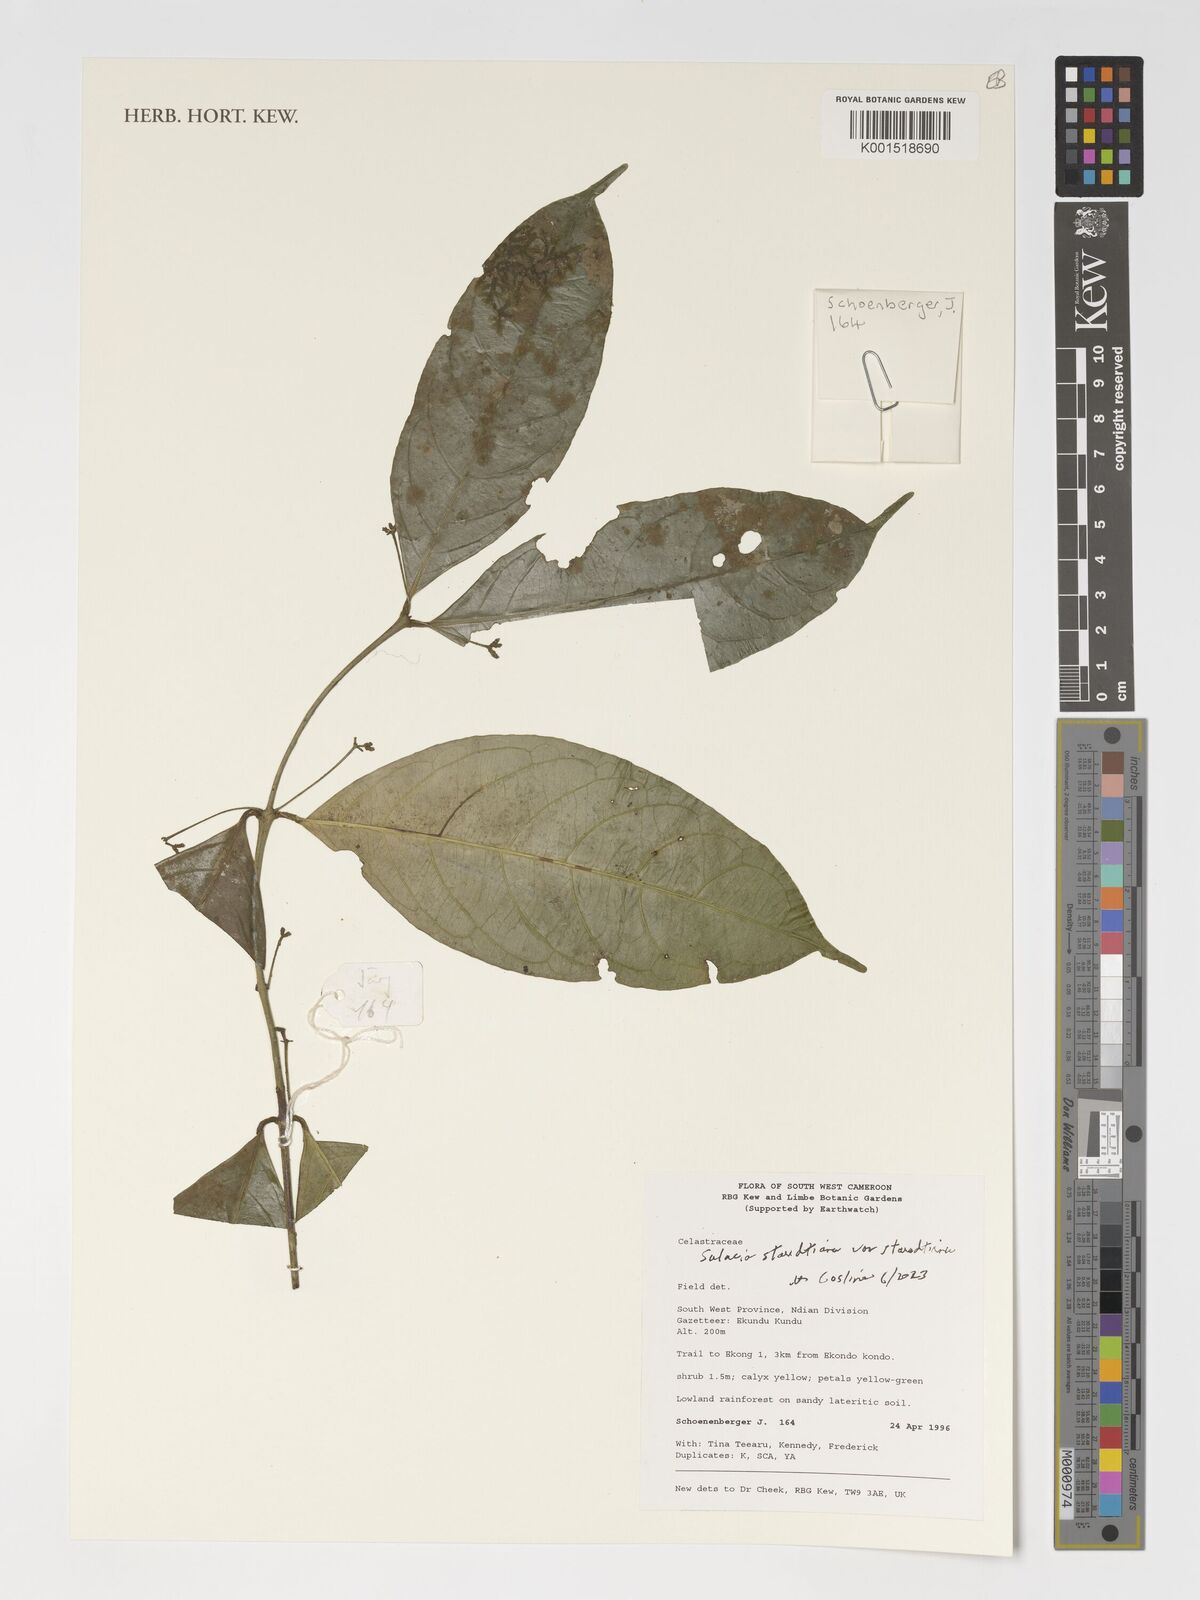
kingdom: Plantae
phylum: Tracheophyta
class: Magnoliopsida
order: Celastrales
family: Celastraceae
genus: Salacia
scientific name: Salacia staudtiana
